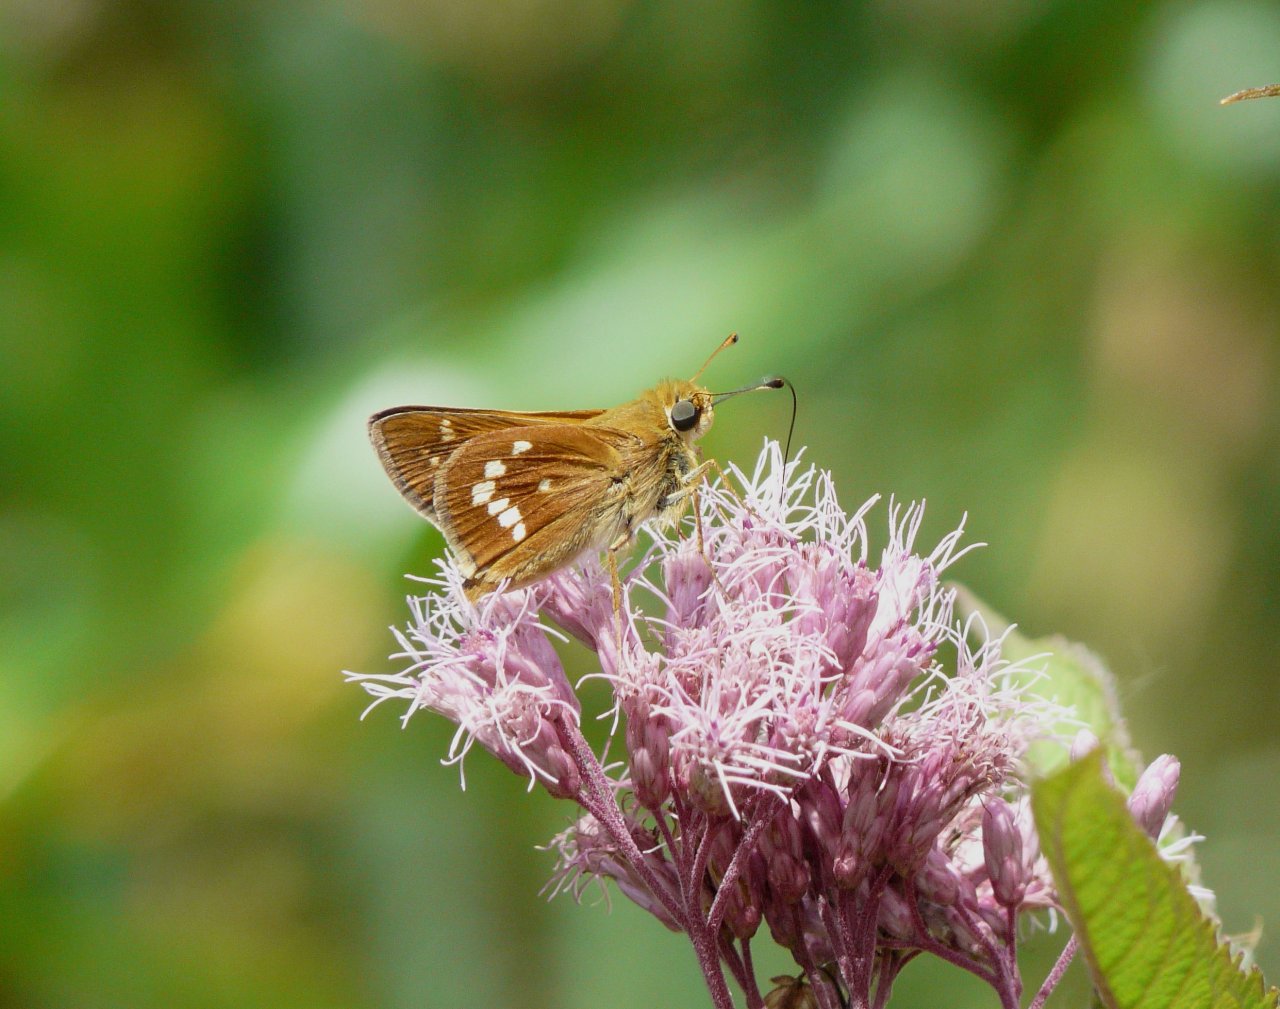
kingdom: Animalia
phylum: Arthropoda
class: Insecta
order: Lepidoptera
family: Hesperiidae
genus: Hesperia
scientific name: Hesperia leonardus
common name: Leonard's Skipper
